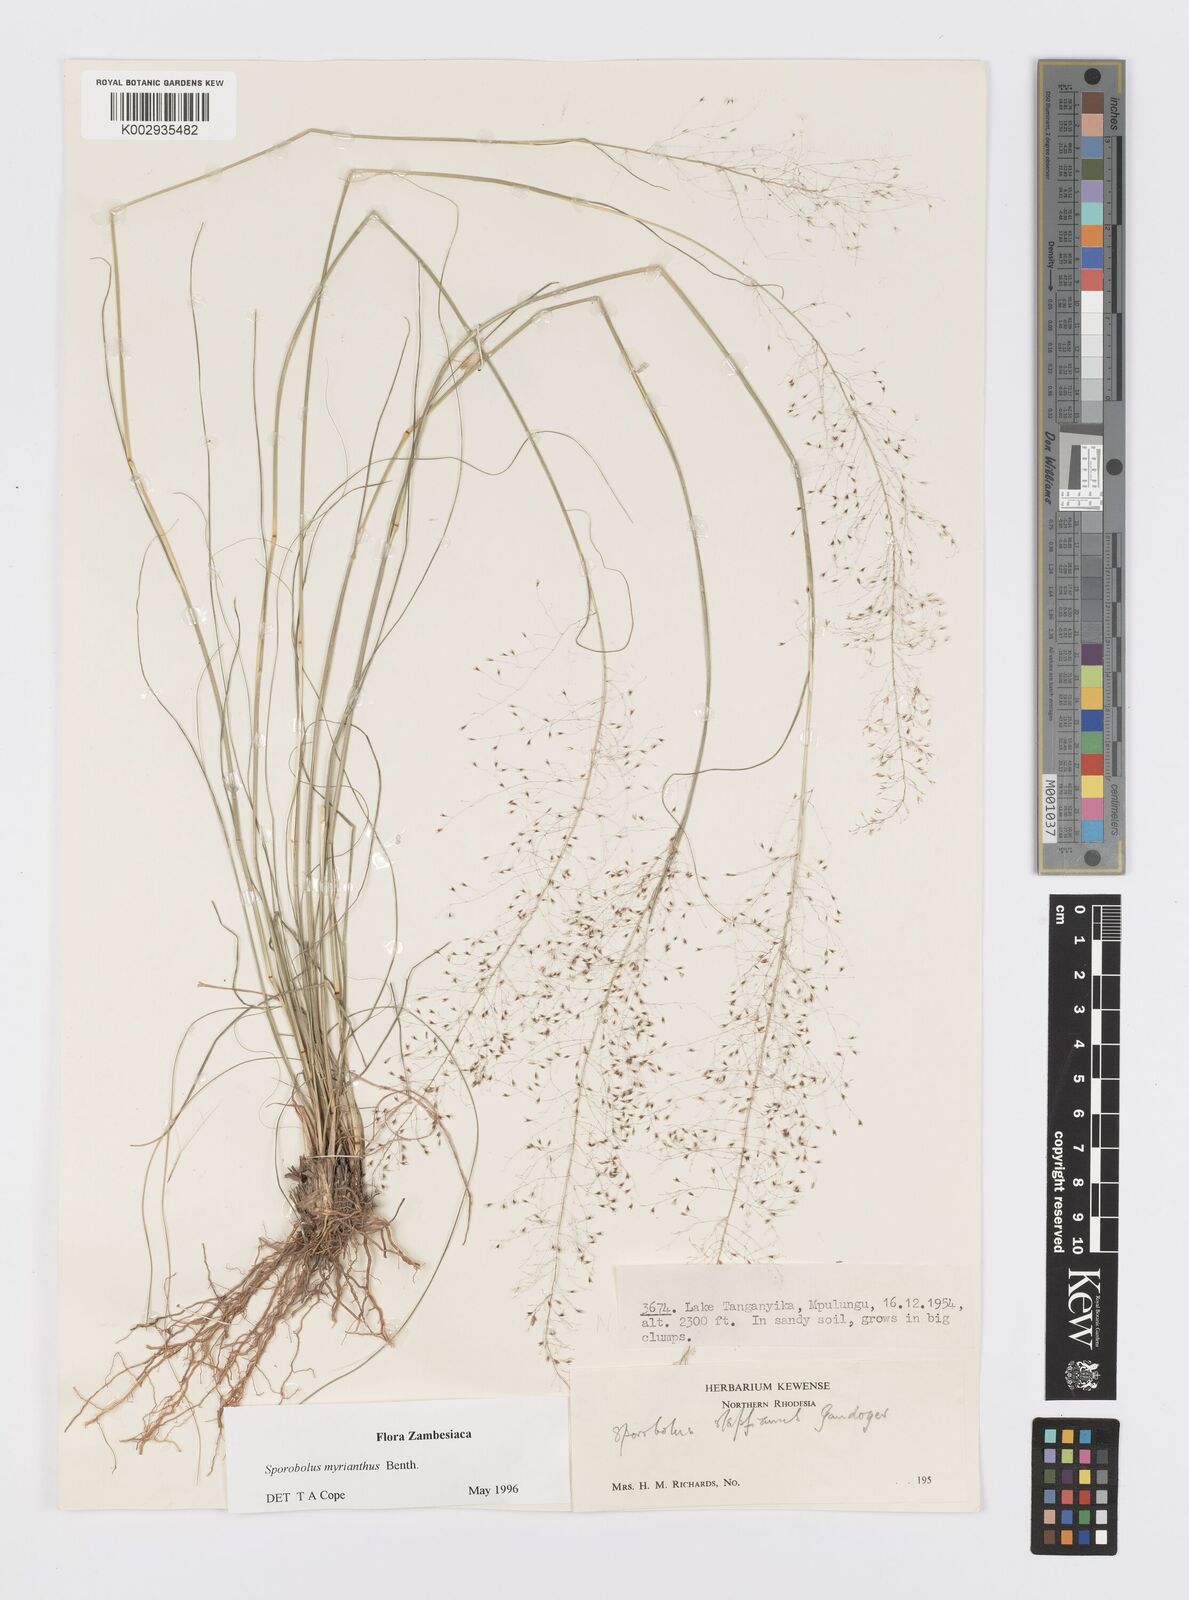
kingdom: Plantae
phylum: Tracheophyta
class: Liliopsida
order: Poales
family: Poaceae
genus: Sporobolus
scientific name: Sporobolus myrianthus
